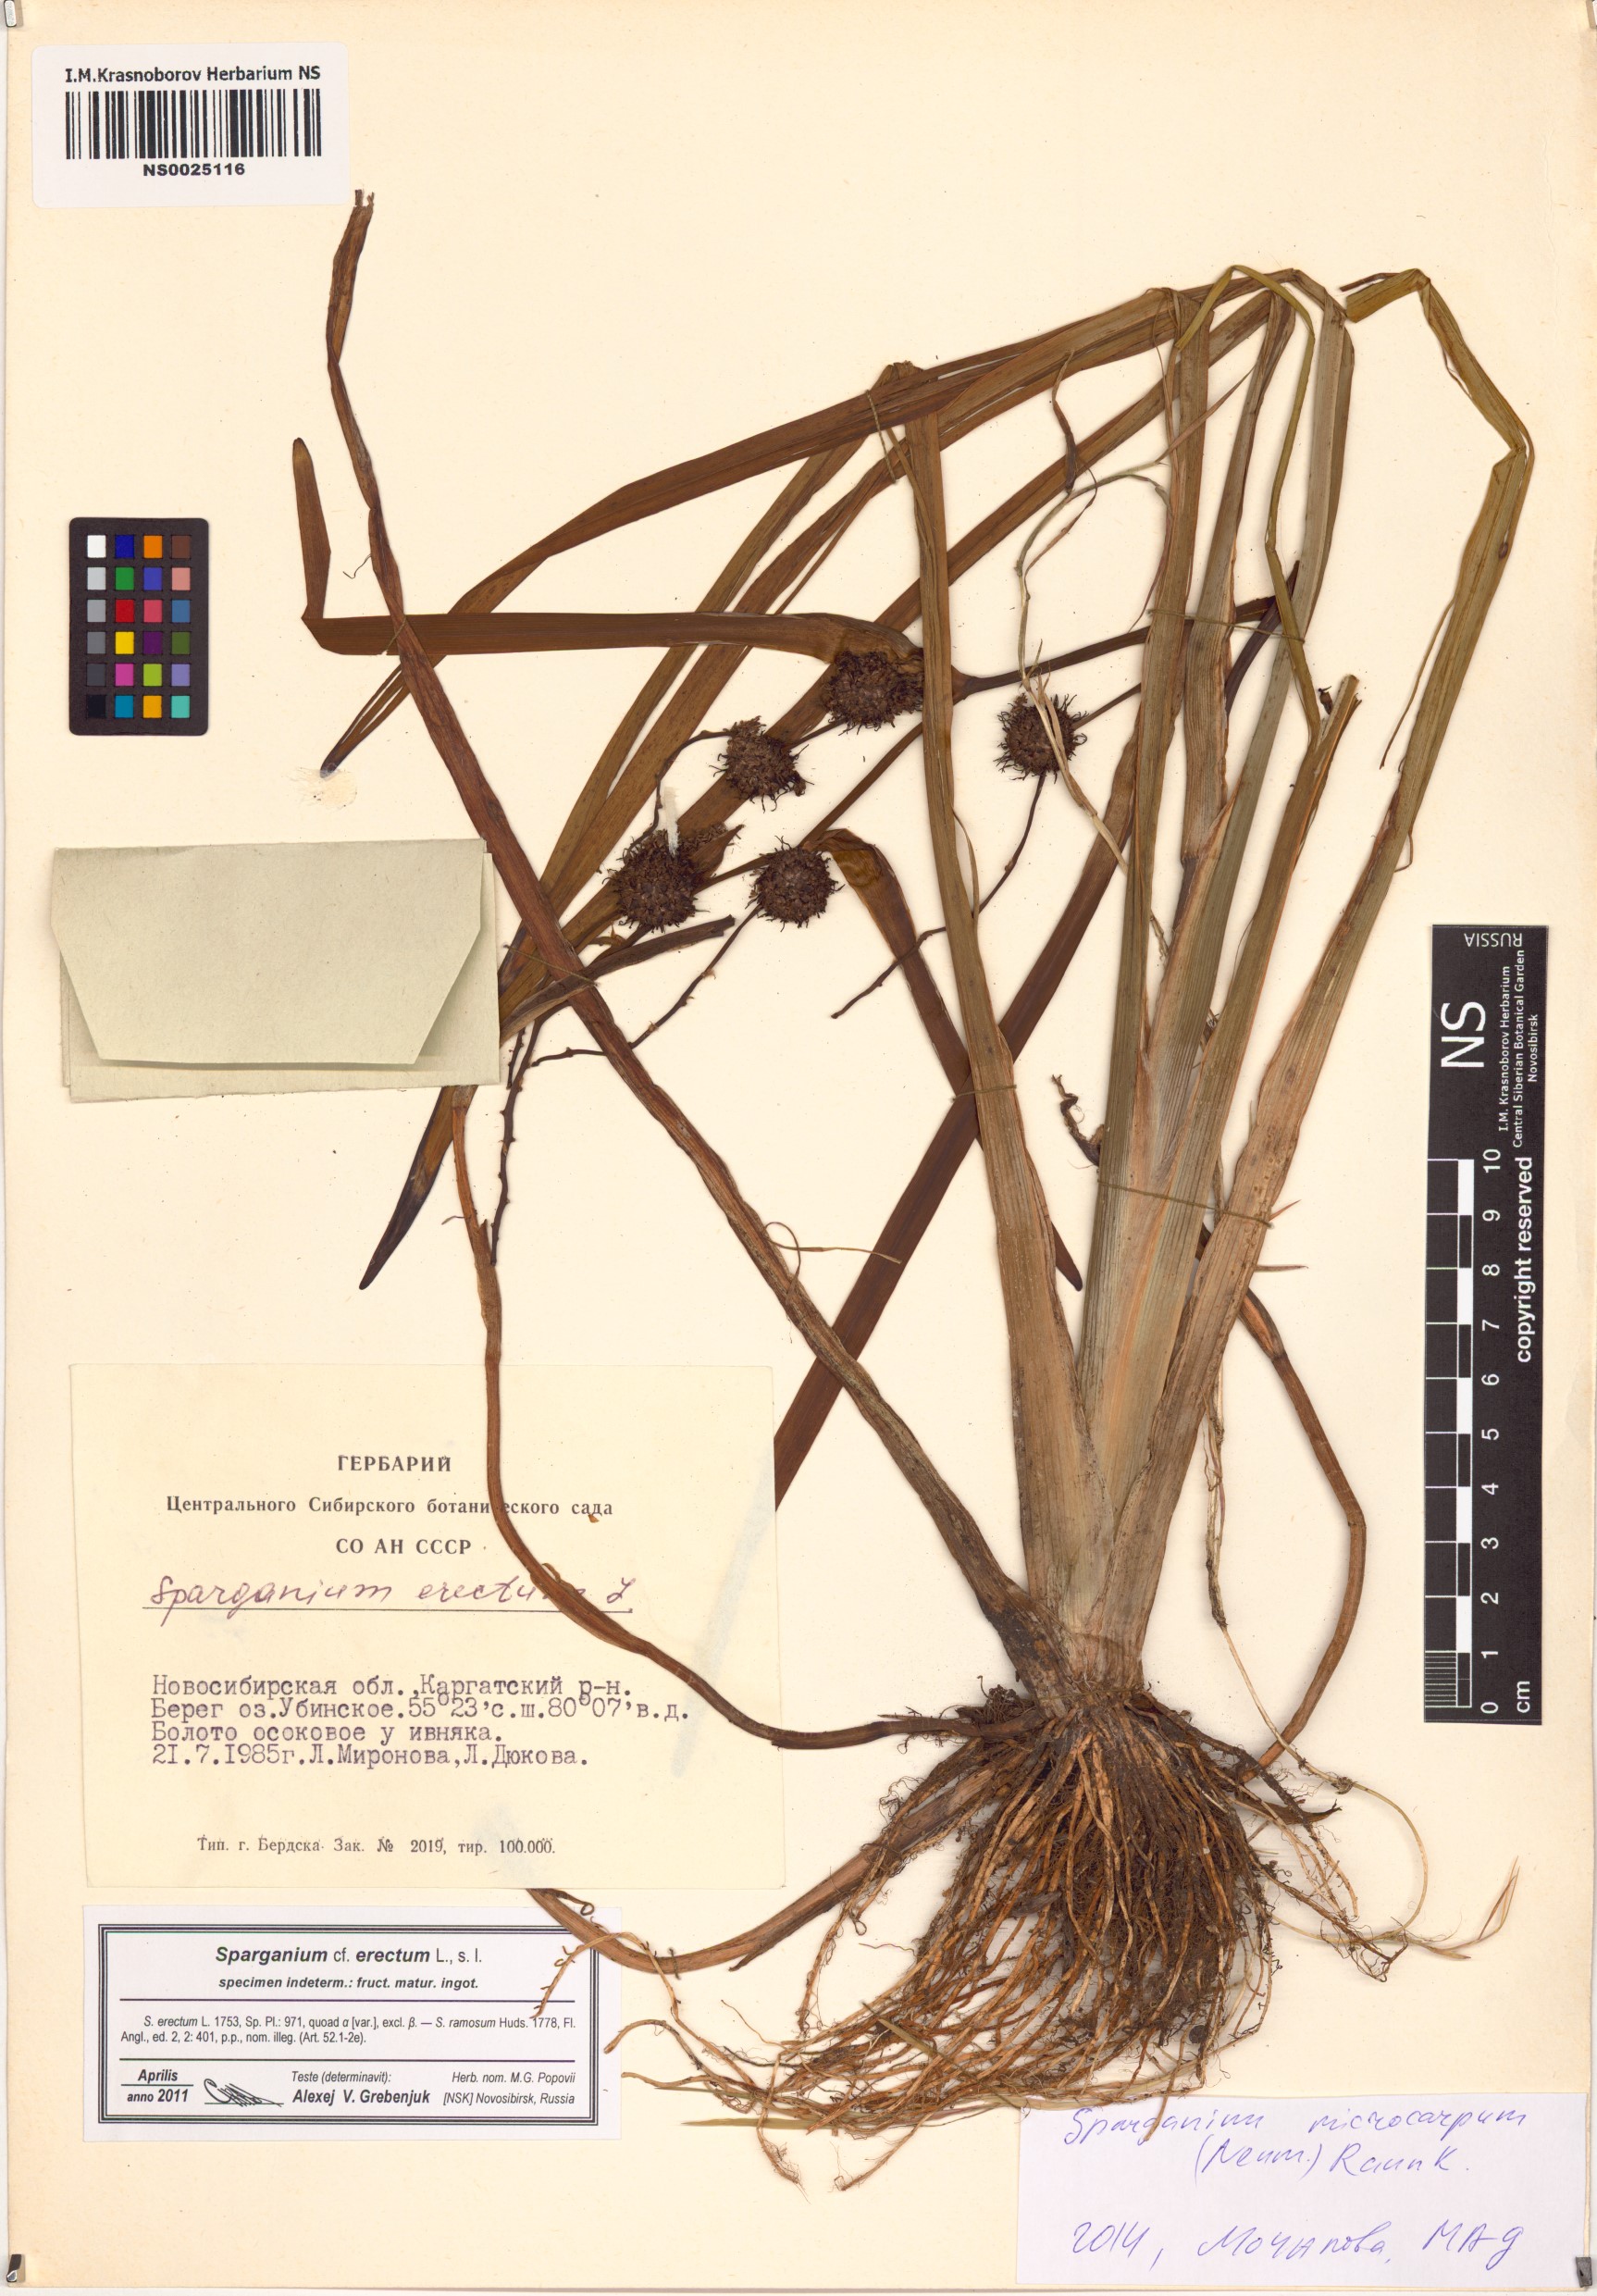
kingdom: Plantae
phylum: Tracheophyta
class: Liliopsida
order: Poales
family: Typhaceae
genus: Sparganium
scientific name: Sparganium erectum
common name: Branched bur-reed
